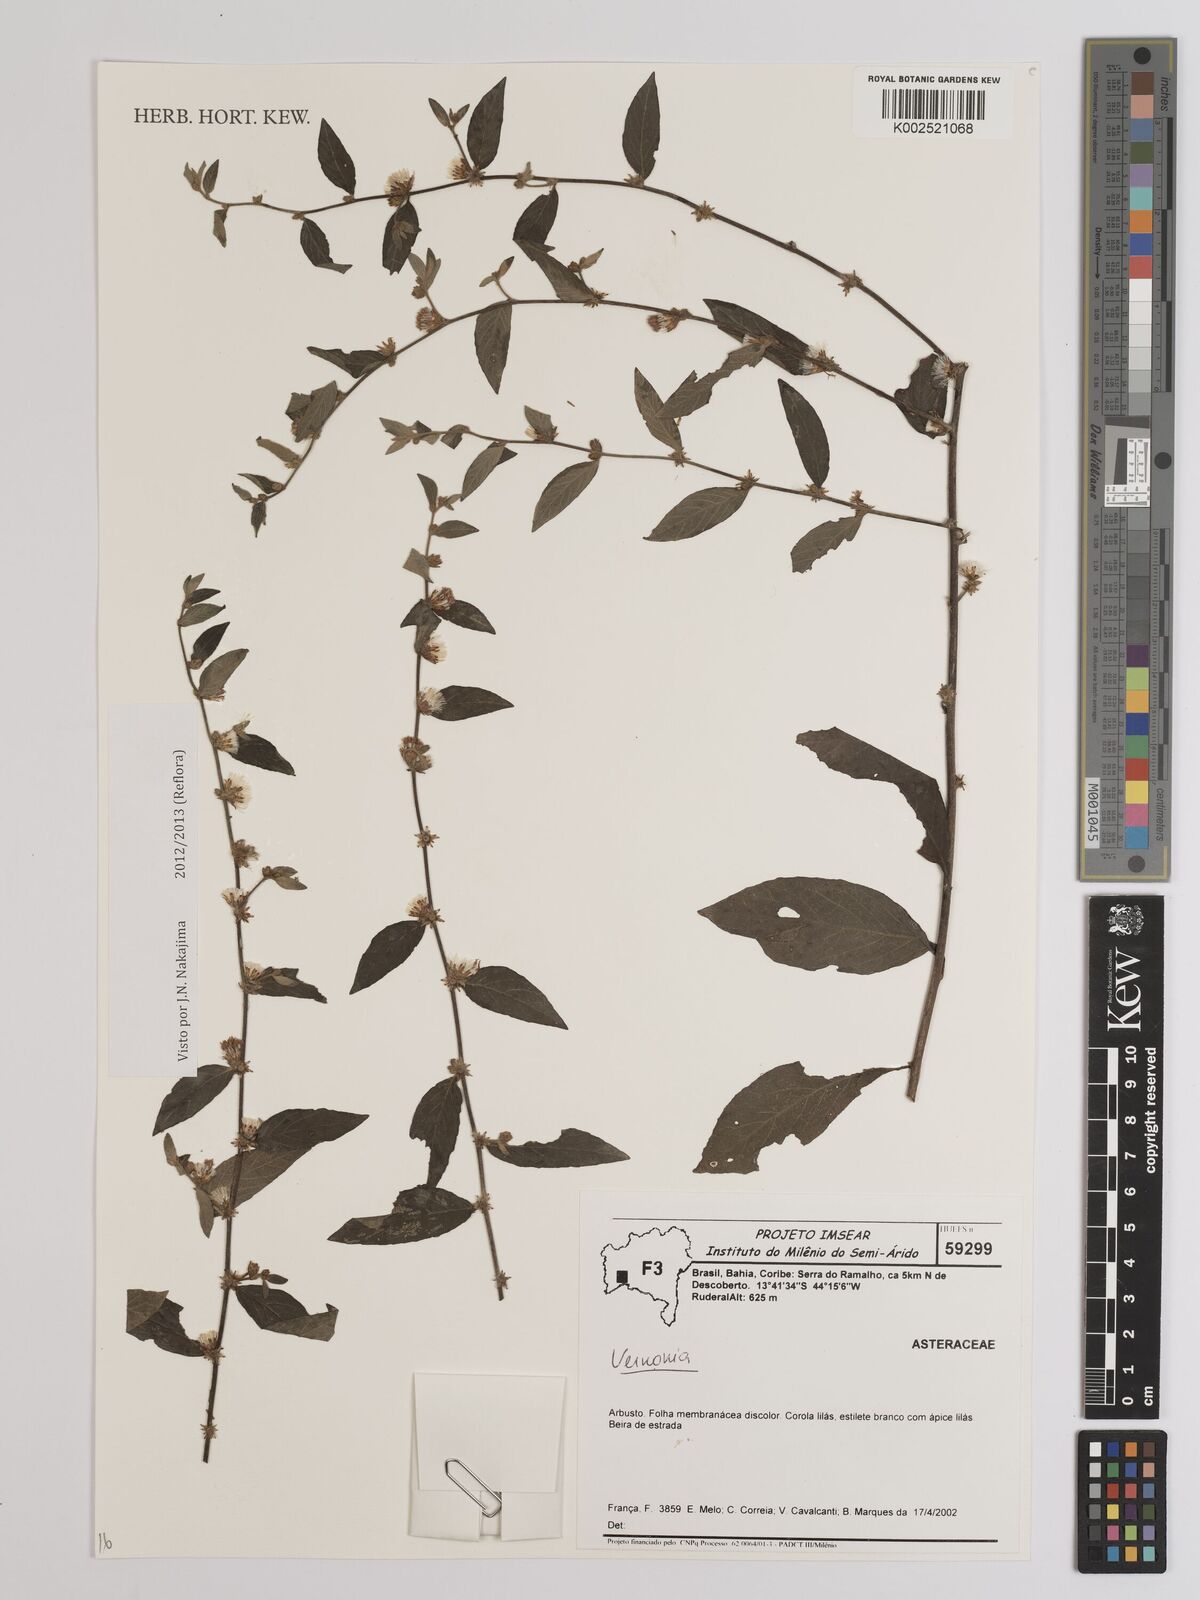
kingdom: Plantae
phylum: Tracheophyta
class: Magnoliopsida
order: Asterales
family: Asteraceae
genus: Lepidaploa
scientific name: Lepidaploa cotoneaster
